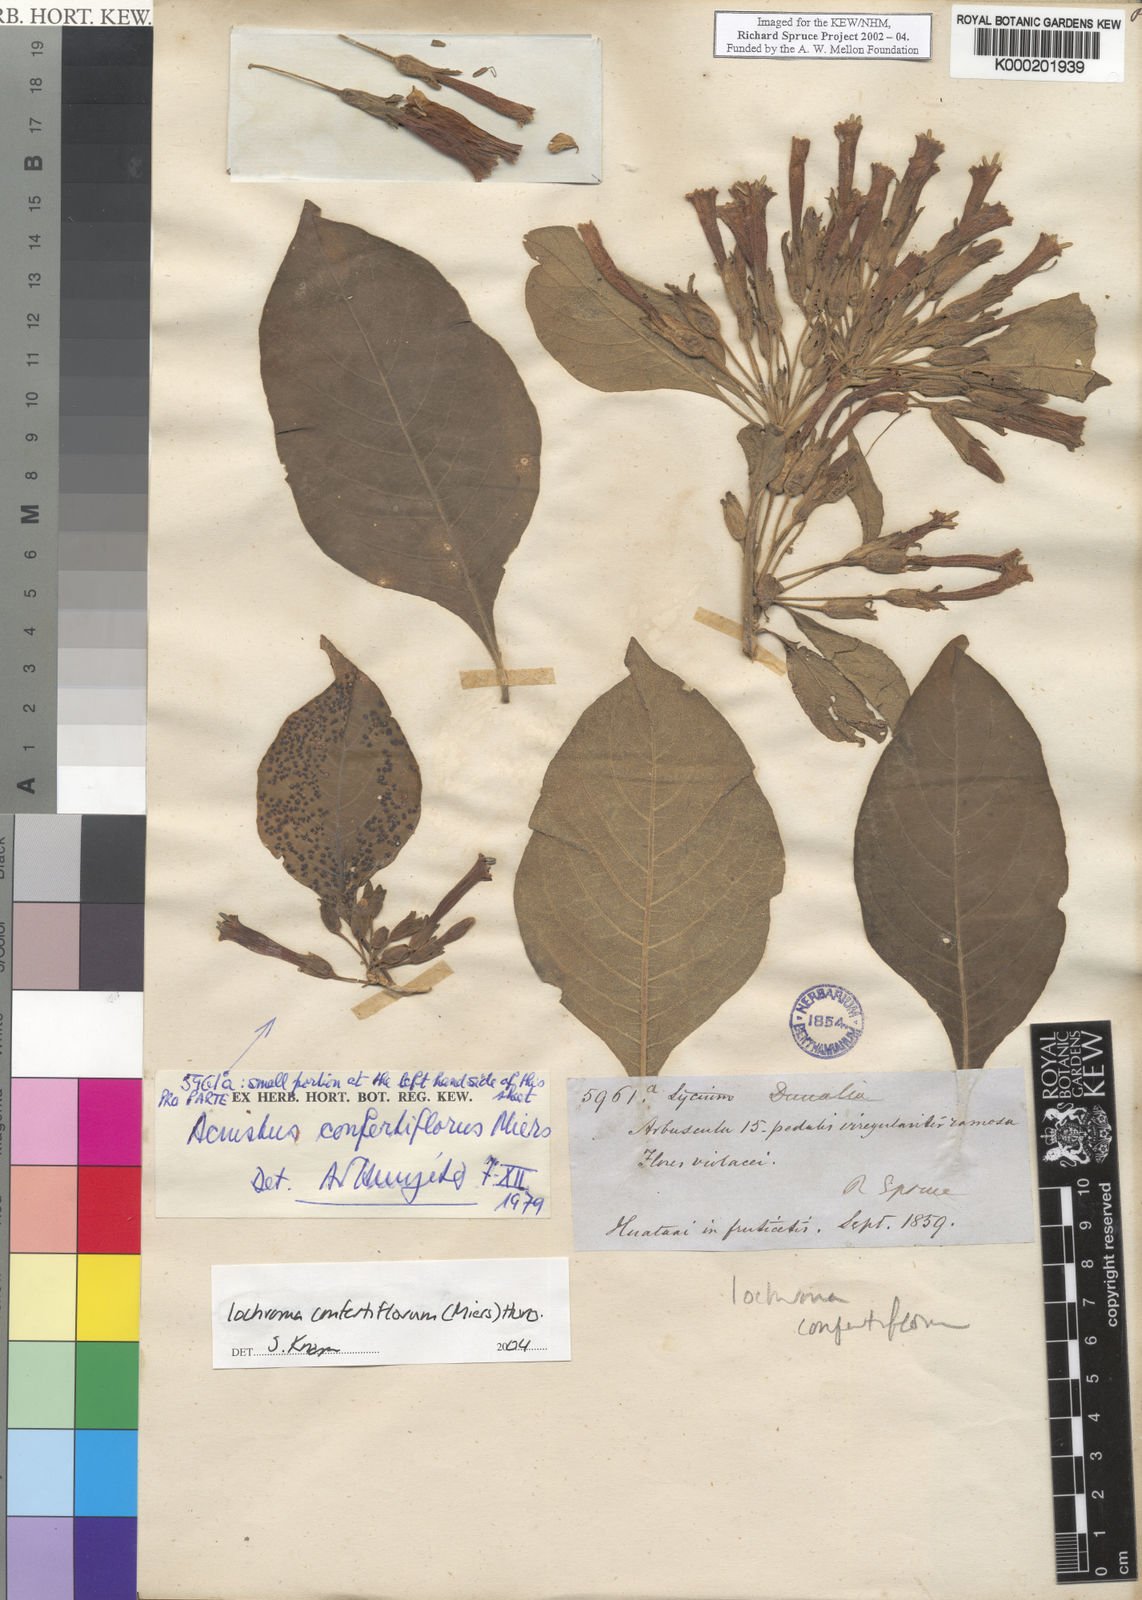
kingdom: Plantae
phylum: Tracheophyta
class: Magnoliopsida
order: Solanales
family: Solanaceae
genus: Iochroma
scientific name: Iochroma confertiflorum
